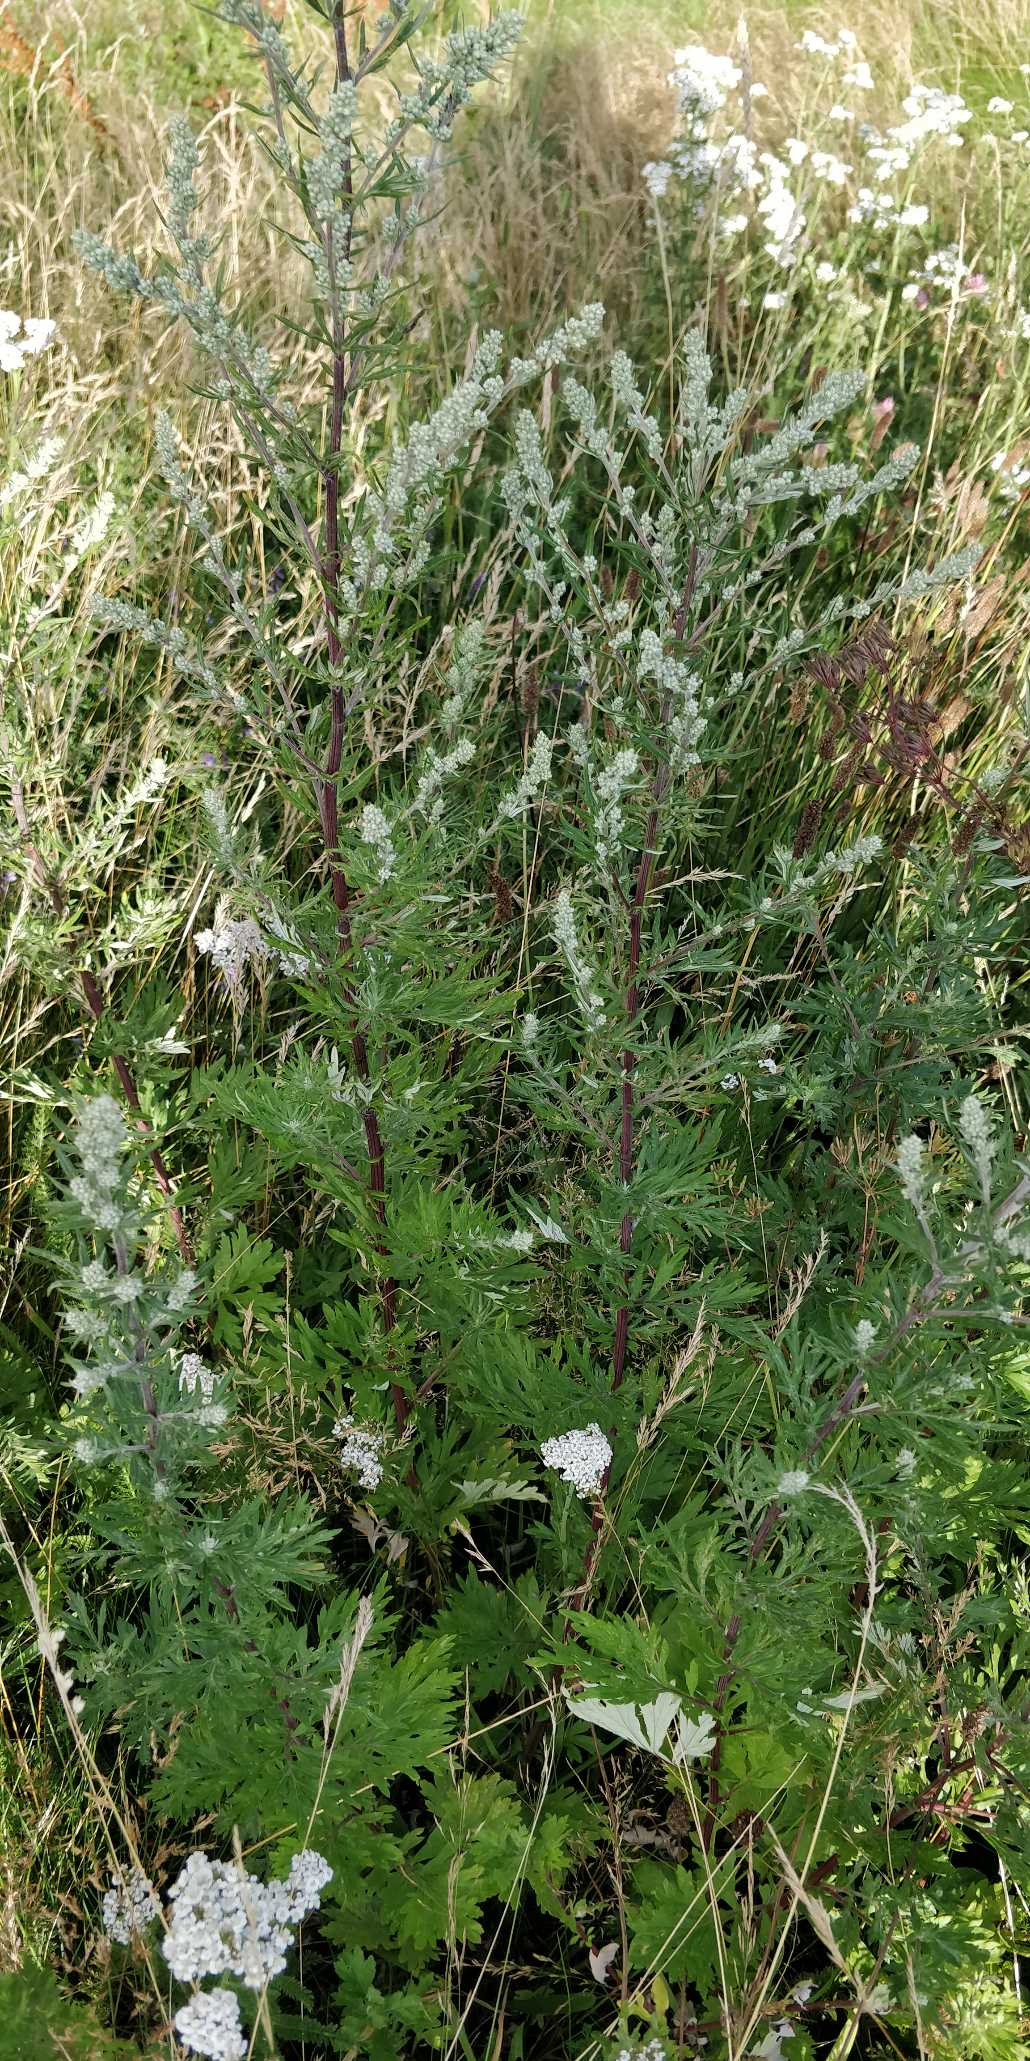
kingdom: Plantae
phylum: Tracheophyta
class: Magnoliopsida
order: Asterales
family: Asteraceae
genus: Artemisia
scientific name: Artemisia vulgaris
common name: Grå-bynke
